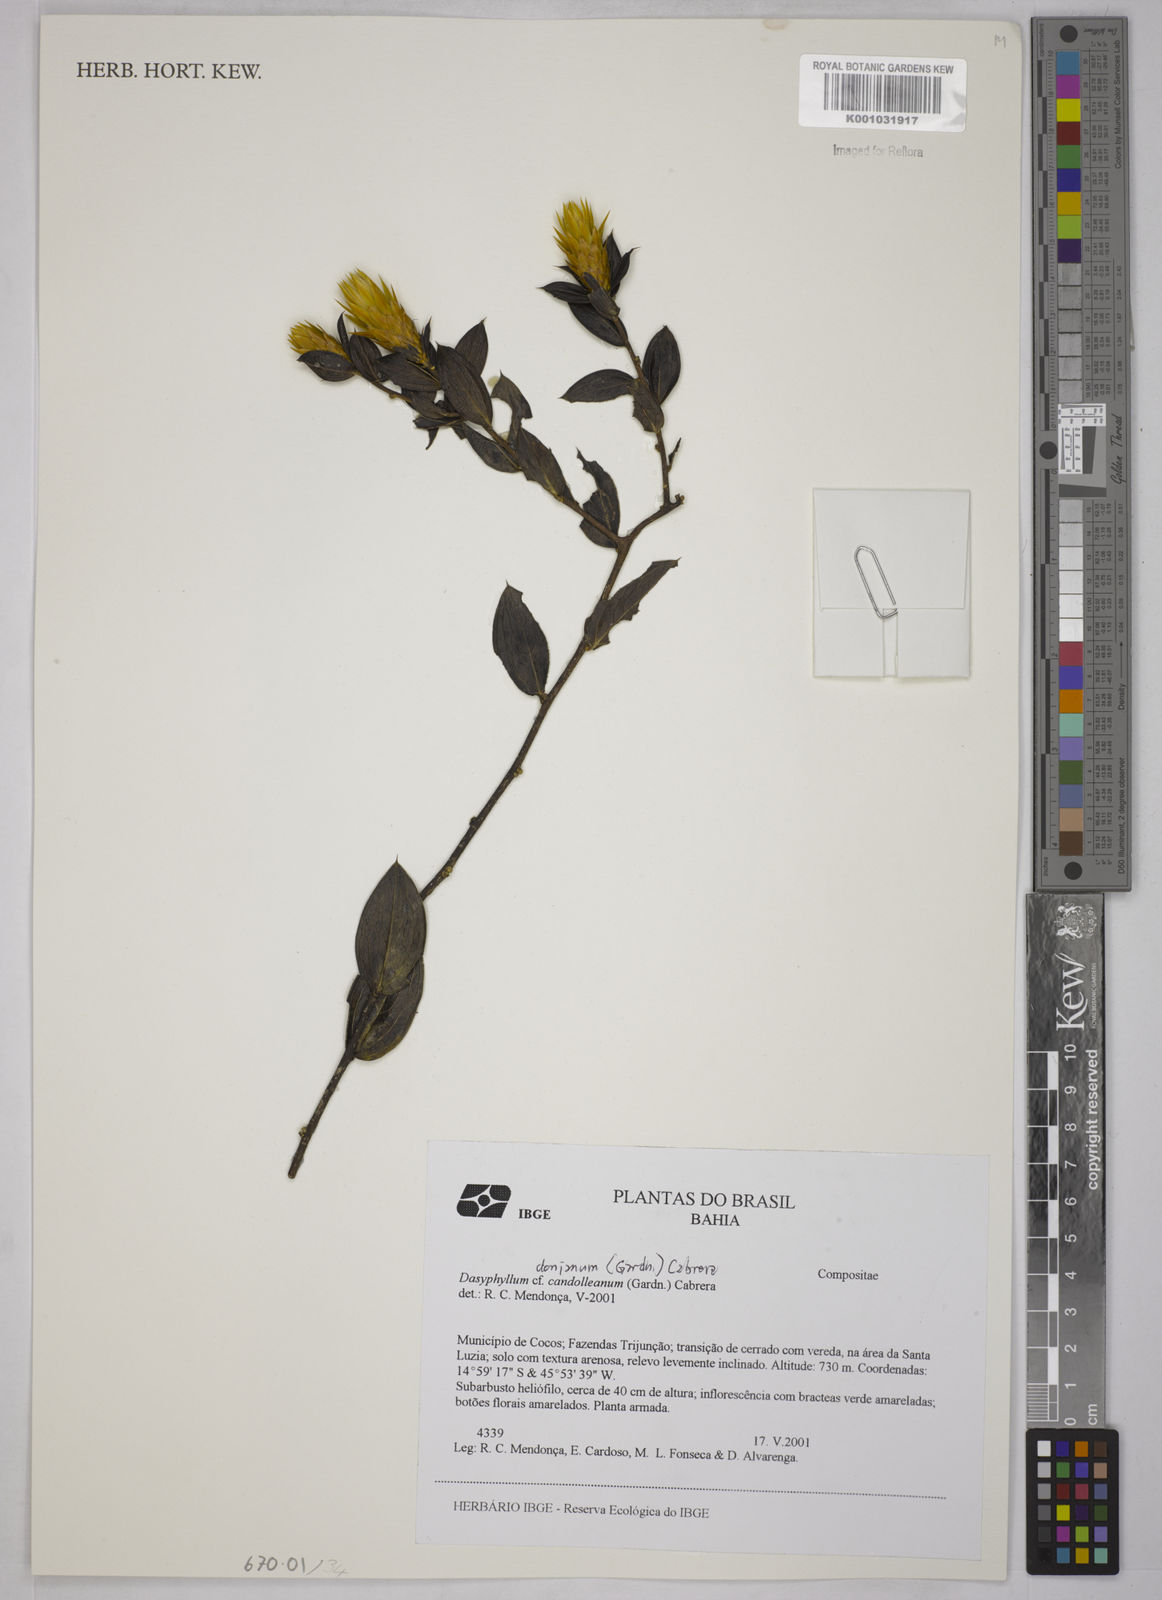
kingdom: Plantae
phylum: Tracheophyta
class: Magnoliopsida
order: Asterales
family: Asteraceae
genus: Dasyphyllum
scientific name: Dasyphyllum donianum
